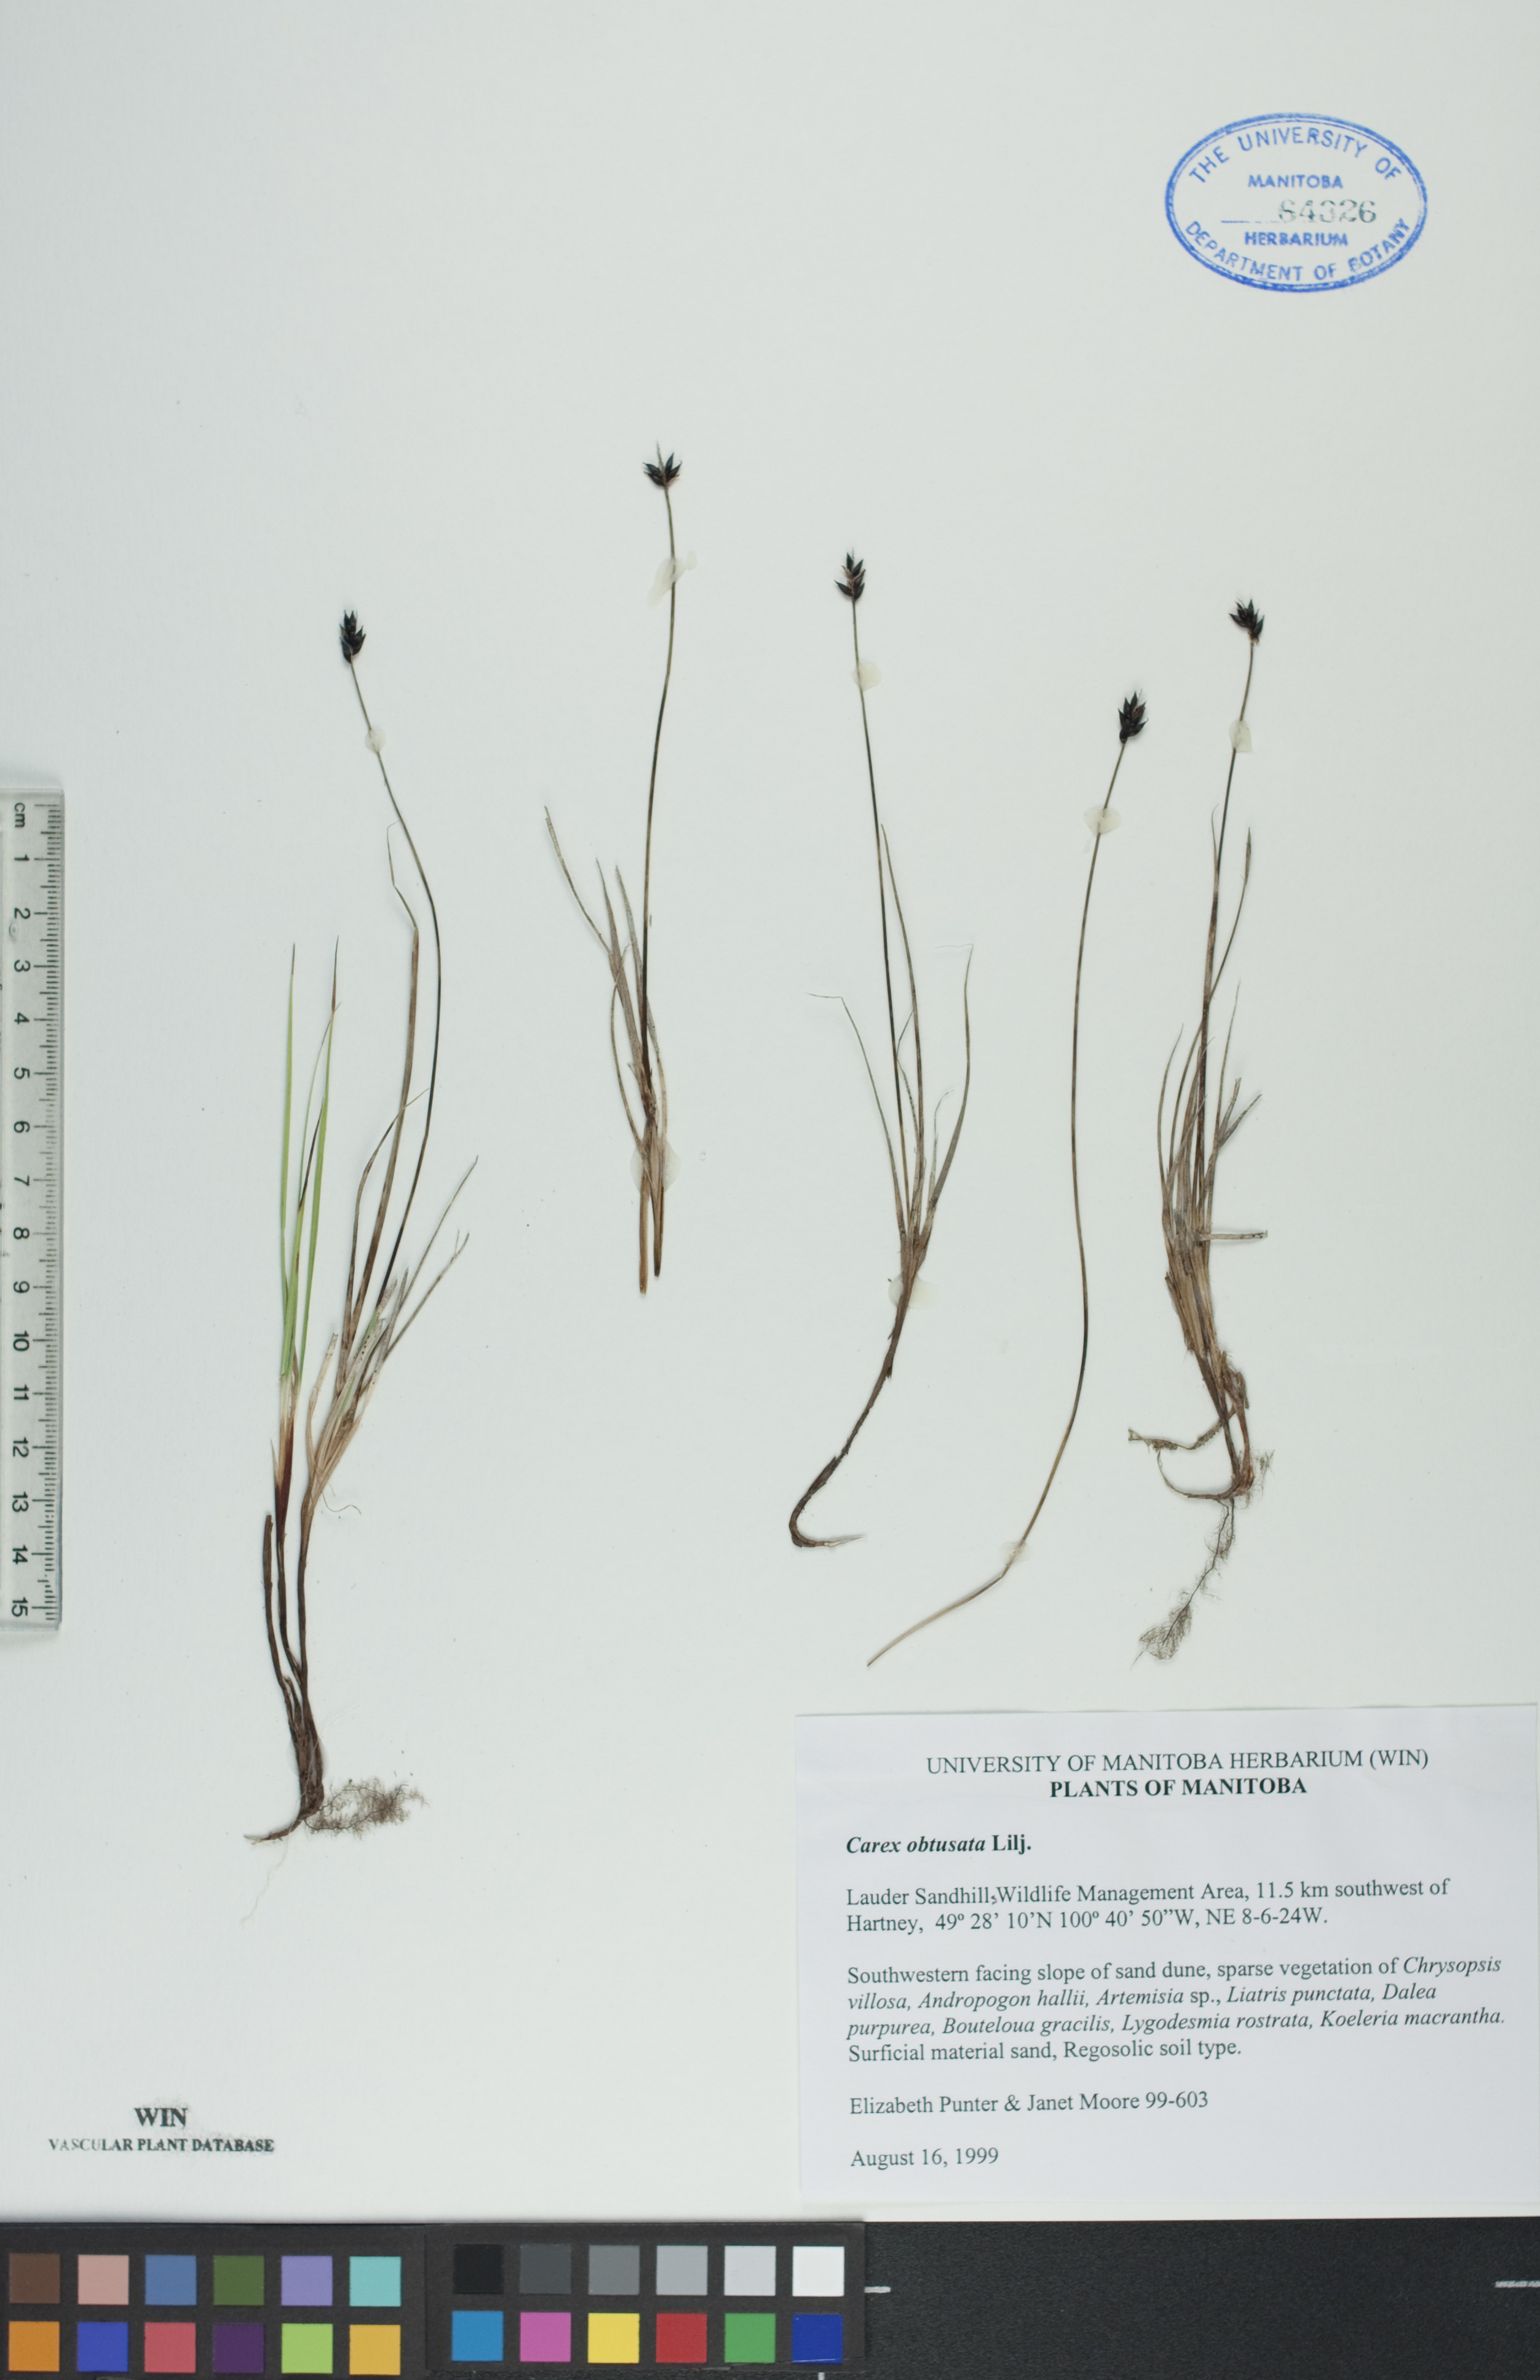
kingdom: Plantae
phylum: Tracheophyta
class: Liliopsida
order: Poales
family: Cyperaceae
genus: Carex
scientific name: Carex obtusata
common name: Blunt sedge
